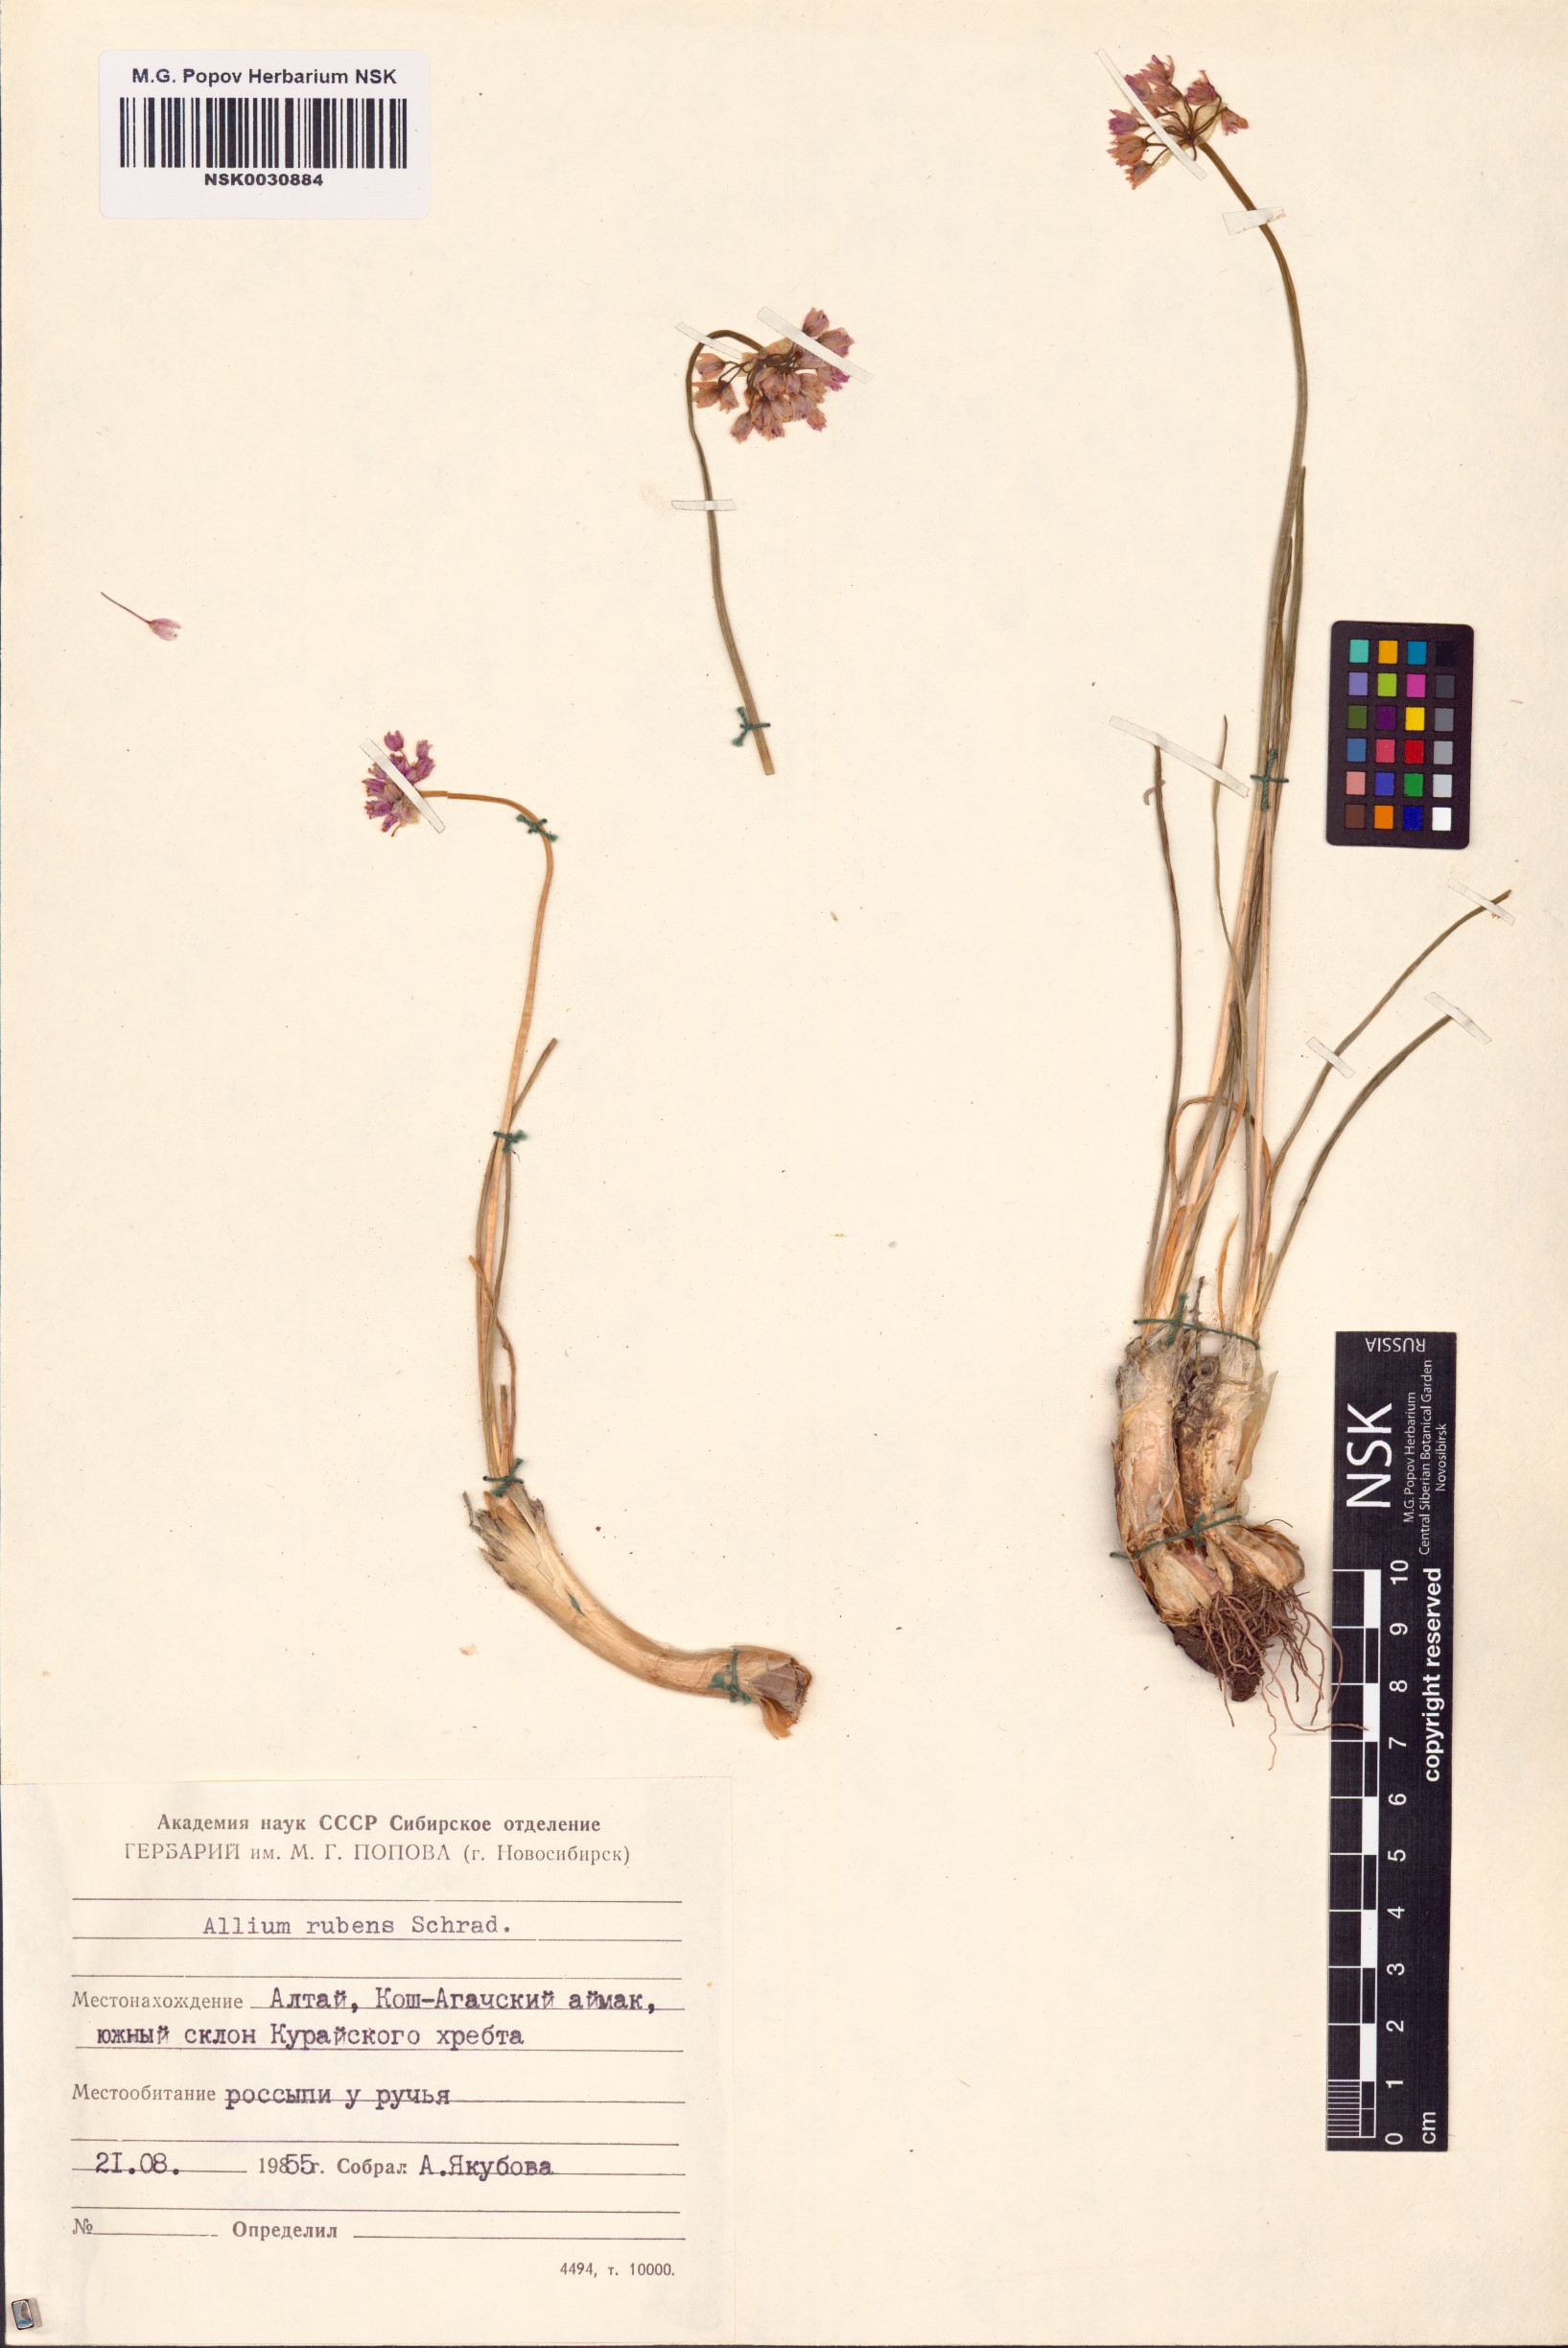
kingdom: Plantae
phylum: Tracheophyta
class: Liliopsida
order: Asparagales
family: Amaryllidaceae
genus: Allium
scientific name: Allium rubens
